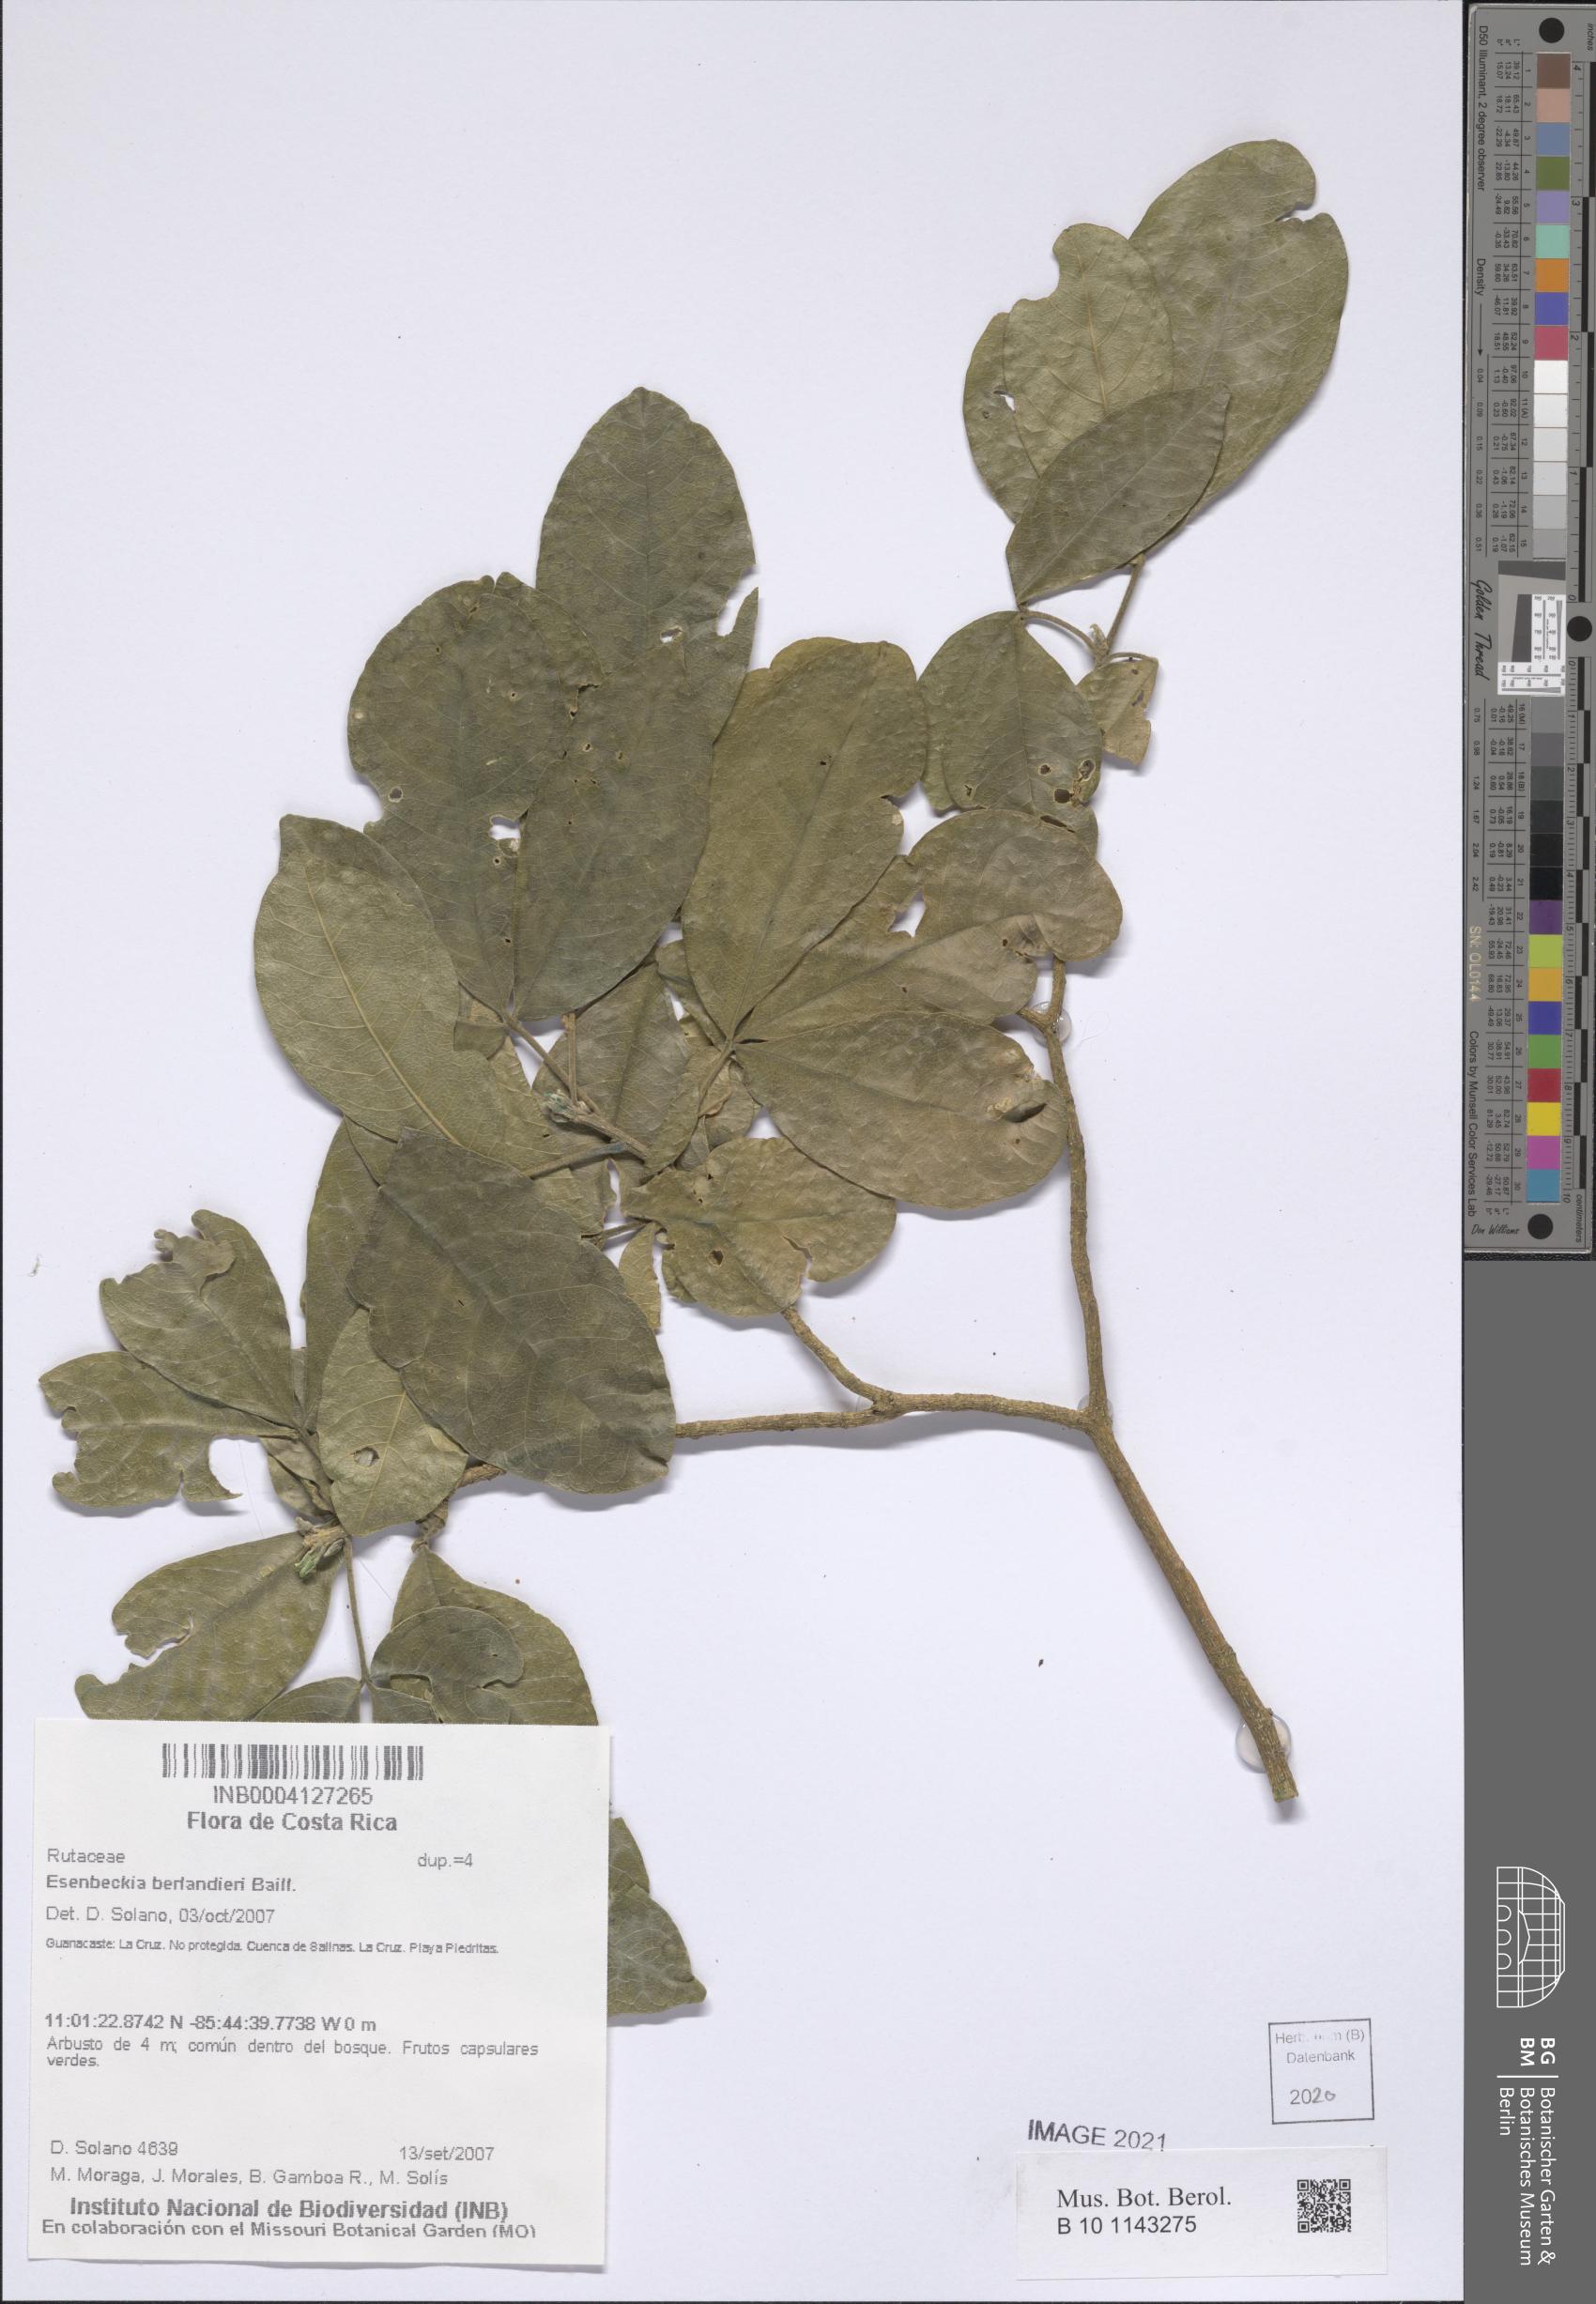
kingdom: Plantae
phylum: Tracheophyta
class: Magnoliopsida
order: Sapindales
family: Rutaceae
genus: Esenbeckia
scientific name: Esenbeckia berlandieri
